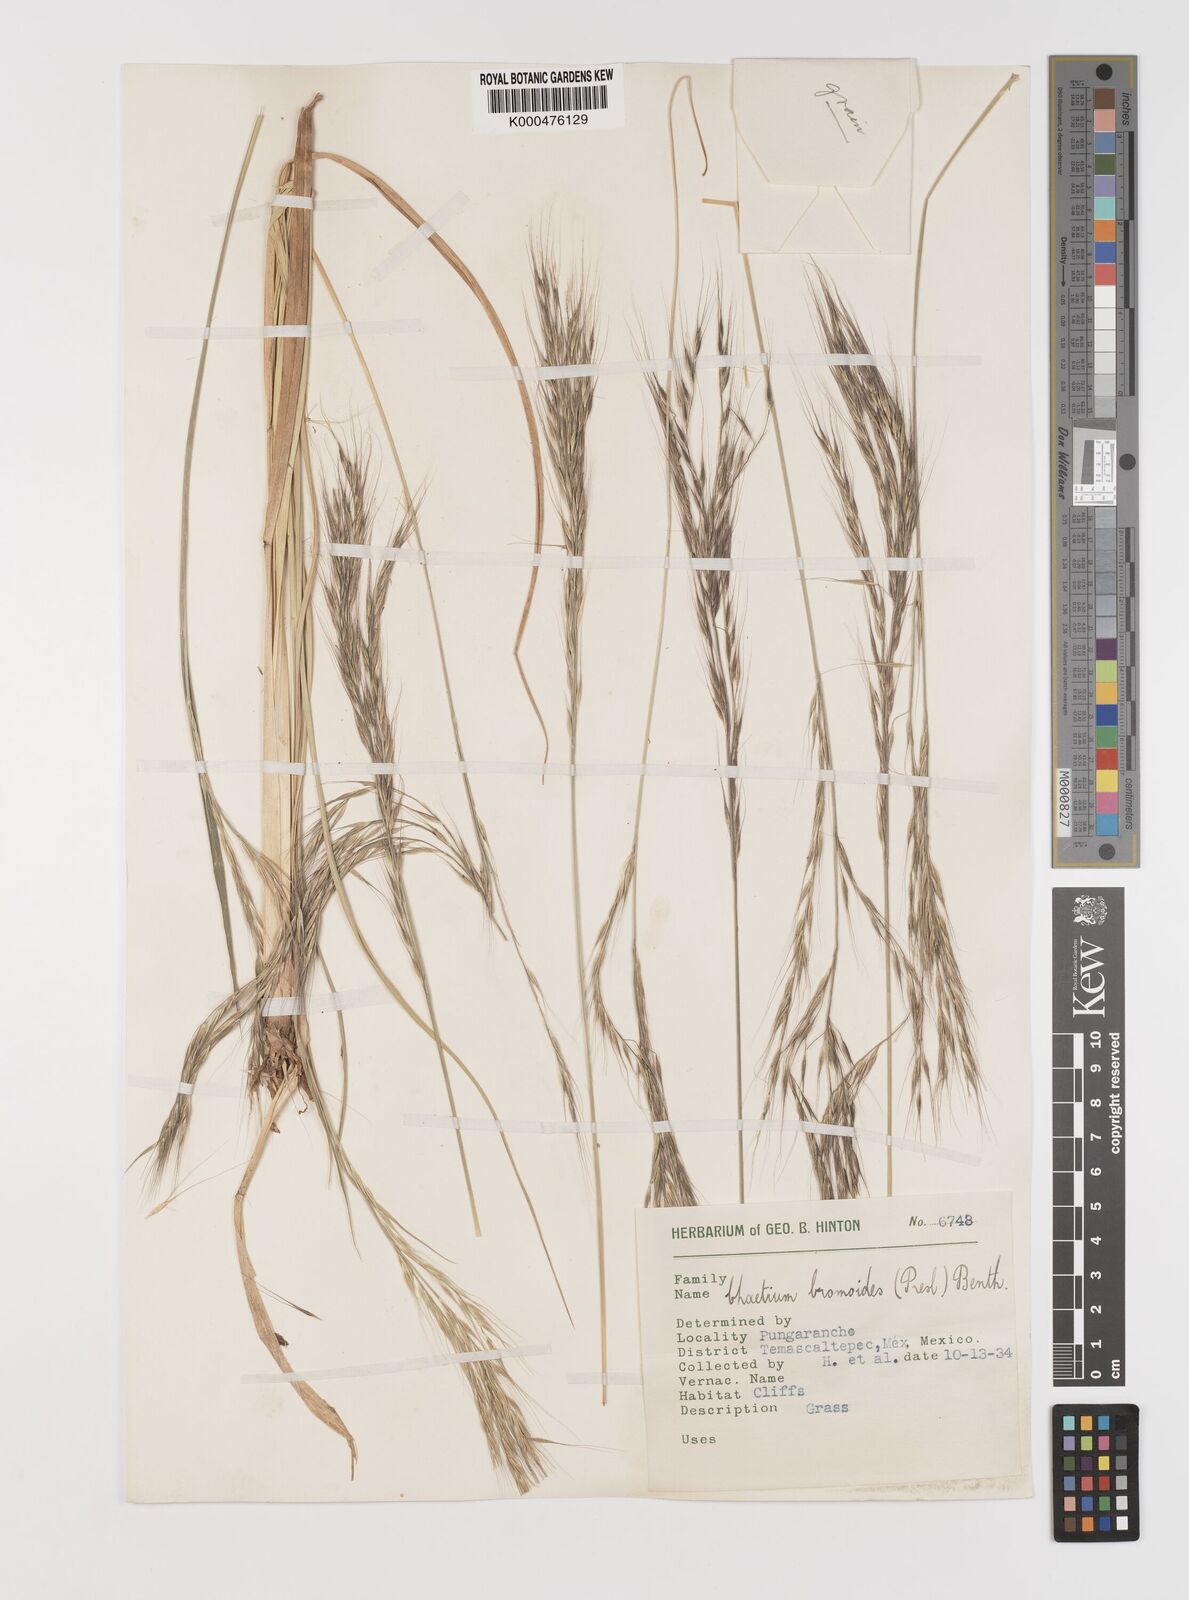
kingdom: Plantae
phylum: Tracheophyta
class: Liliopsida
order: Poales
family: Poaceae
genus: Chaetium
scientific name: Chaetium
